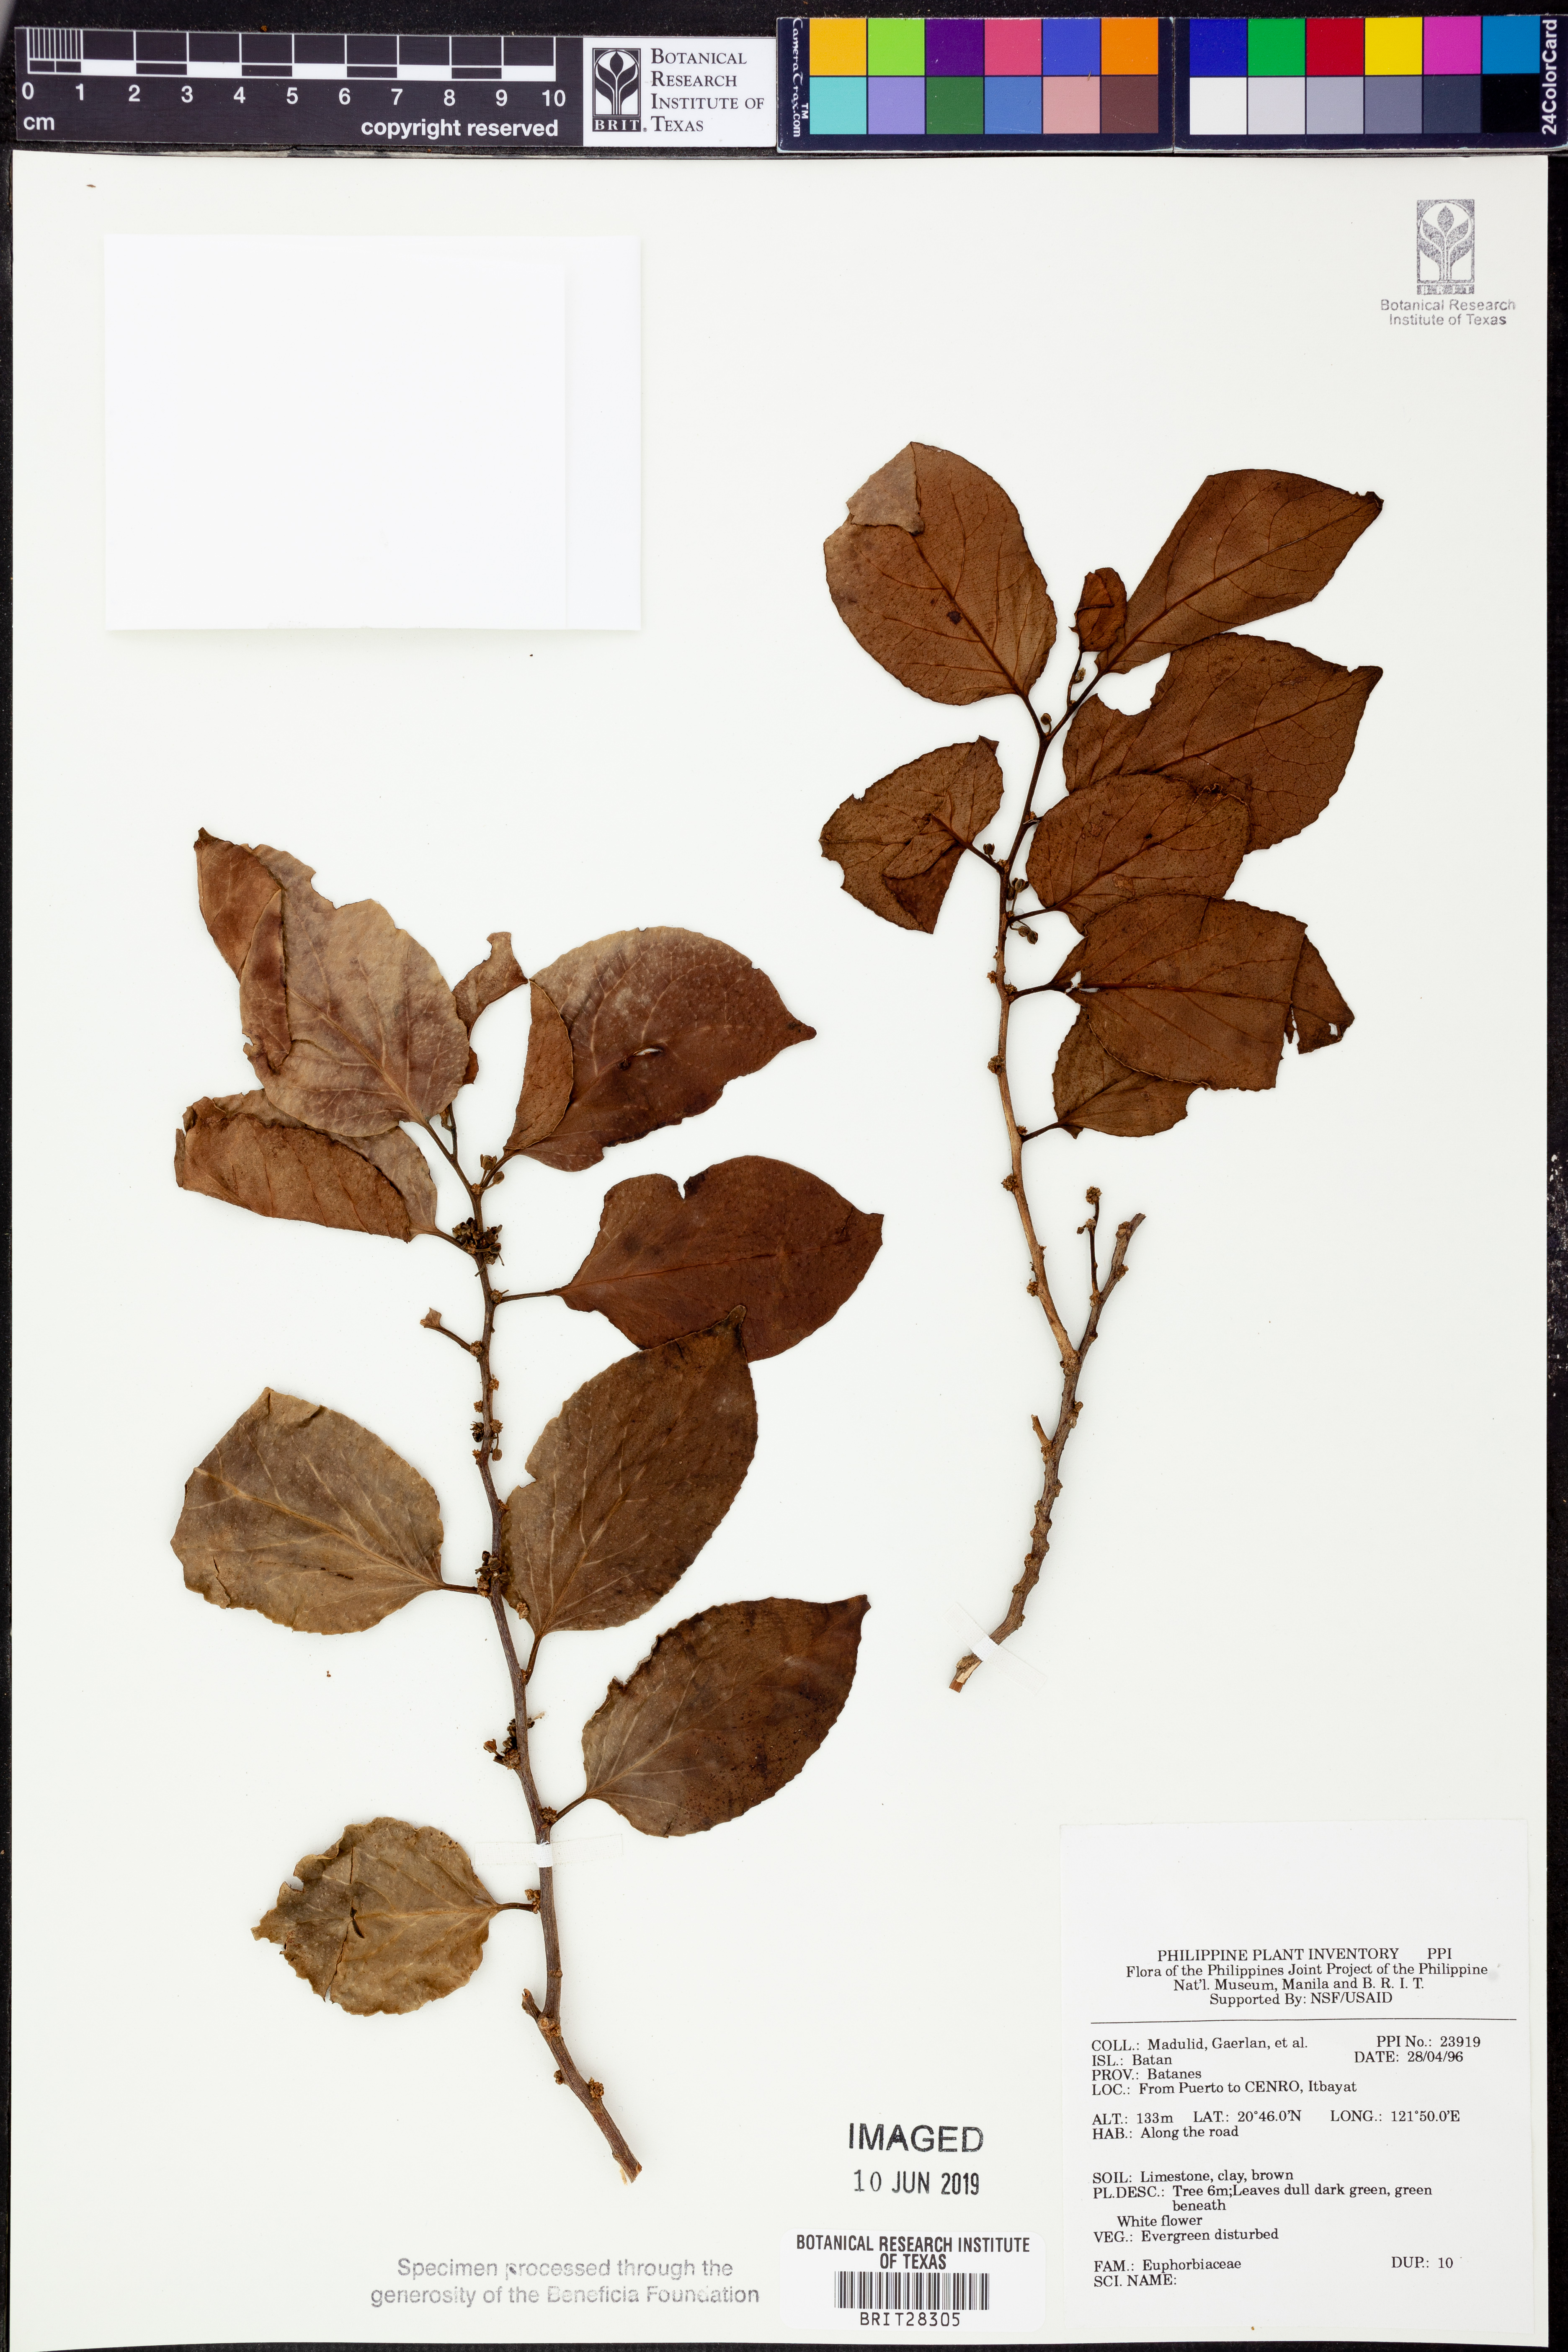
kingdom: Plantae
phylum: Tracheophyta
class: Magnoliopsida
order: Malpighiales
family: Euphorbiaceae
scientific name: Euphorbiaceae
